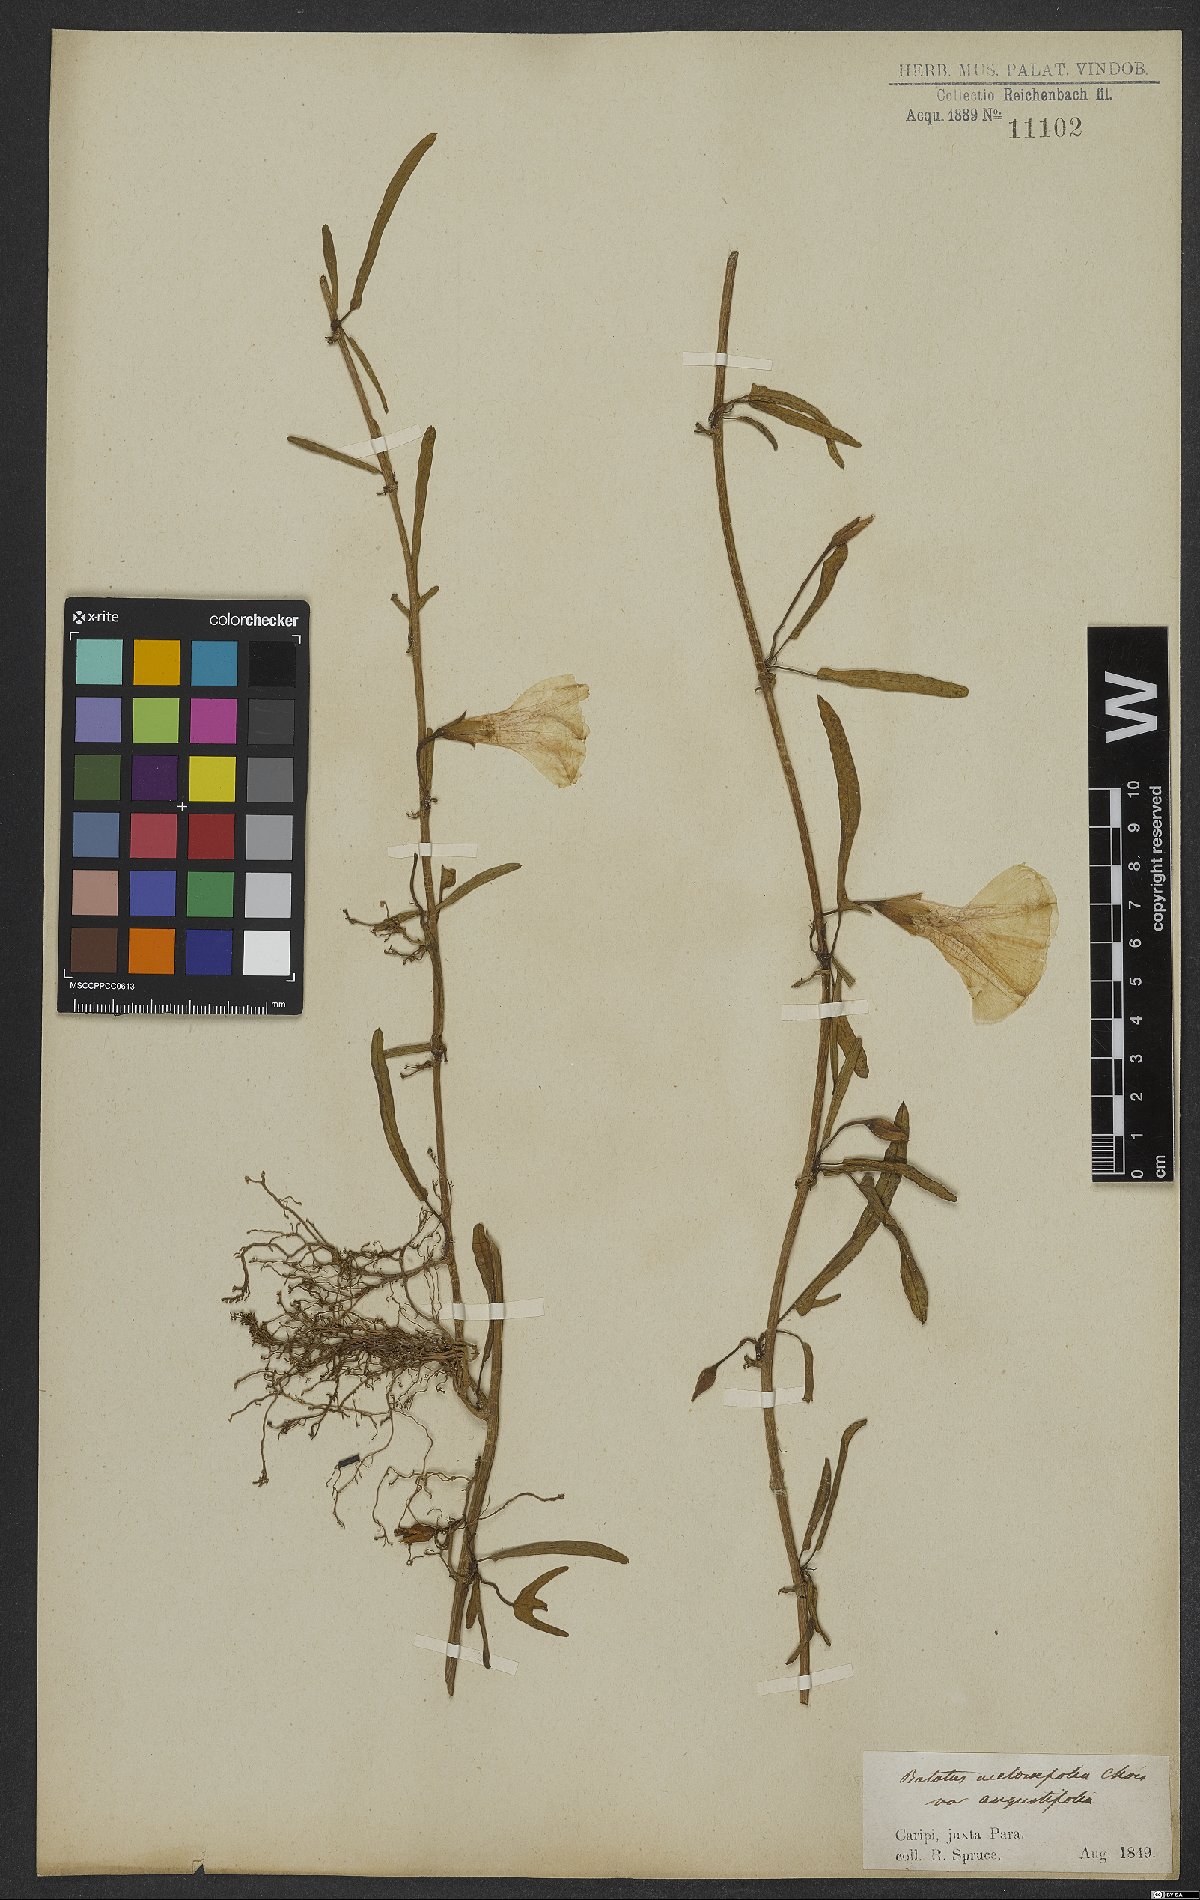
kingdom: Plantae
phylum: Tracheophyta
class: Magnoliopsida
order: Solanales
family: Convolvulaceae
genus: Ipomoea
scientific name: Ipomoea imperati
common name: Fiddle-leaf morning-glory
